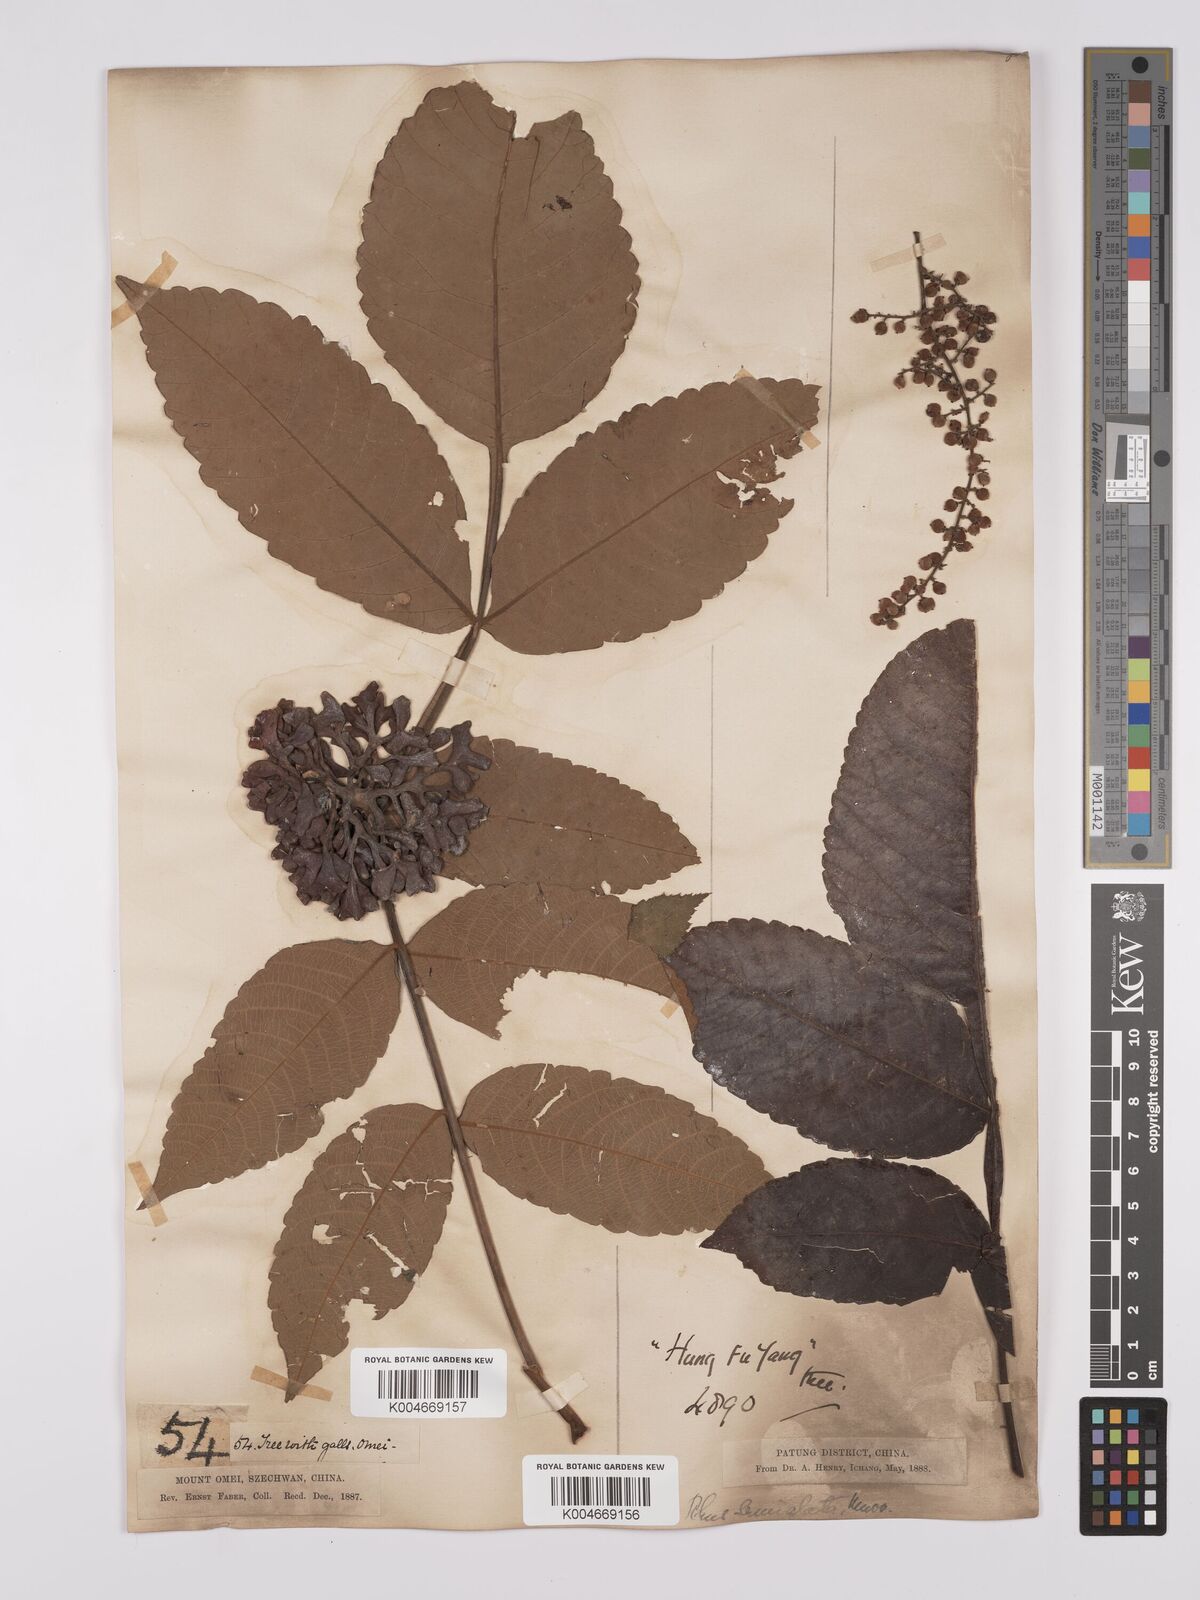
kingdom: Plantae
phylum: Tracheophyta
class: Magnoliopsida
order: Sapindales
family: Anacardiaceae
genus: Rhus
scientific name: Rhus chinensis
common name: Chinese gall
